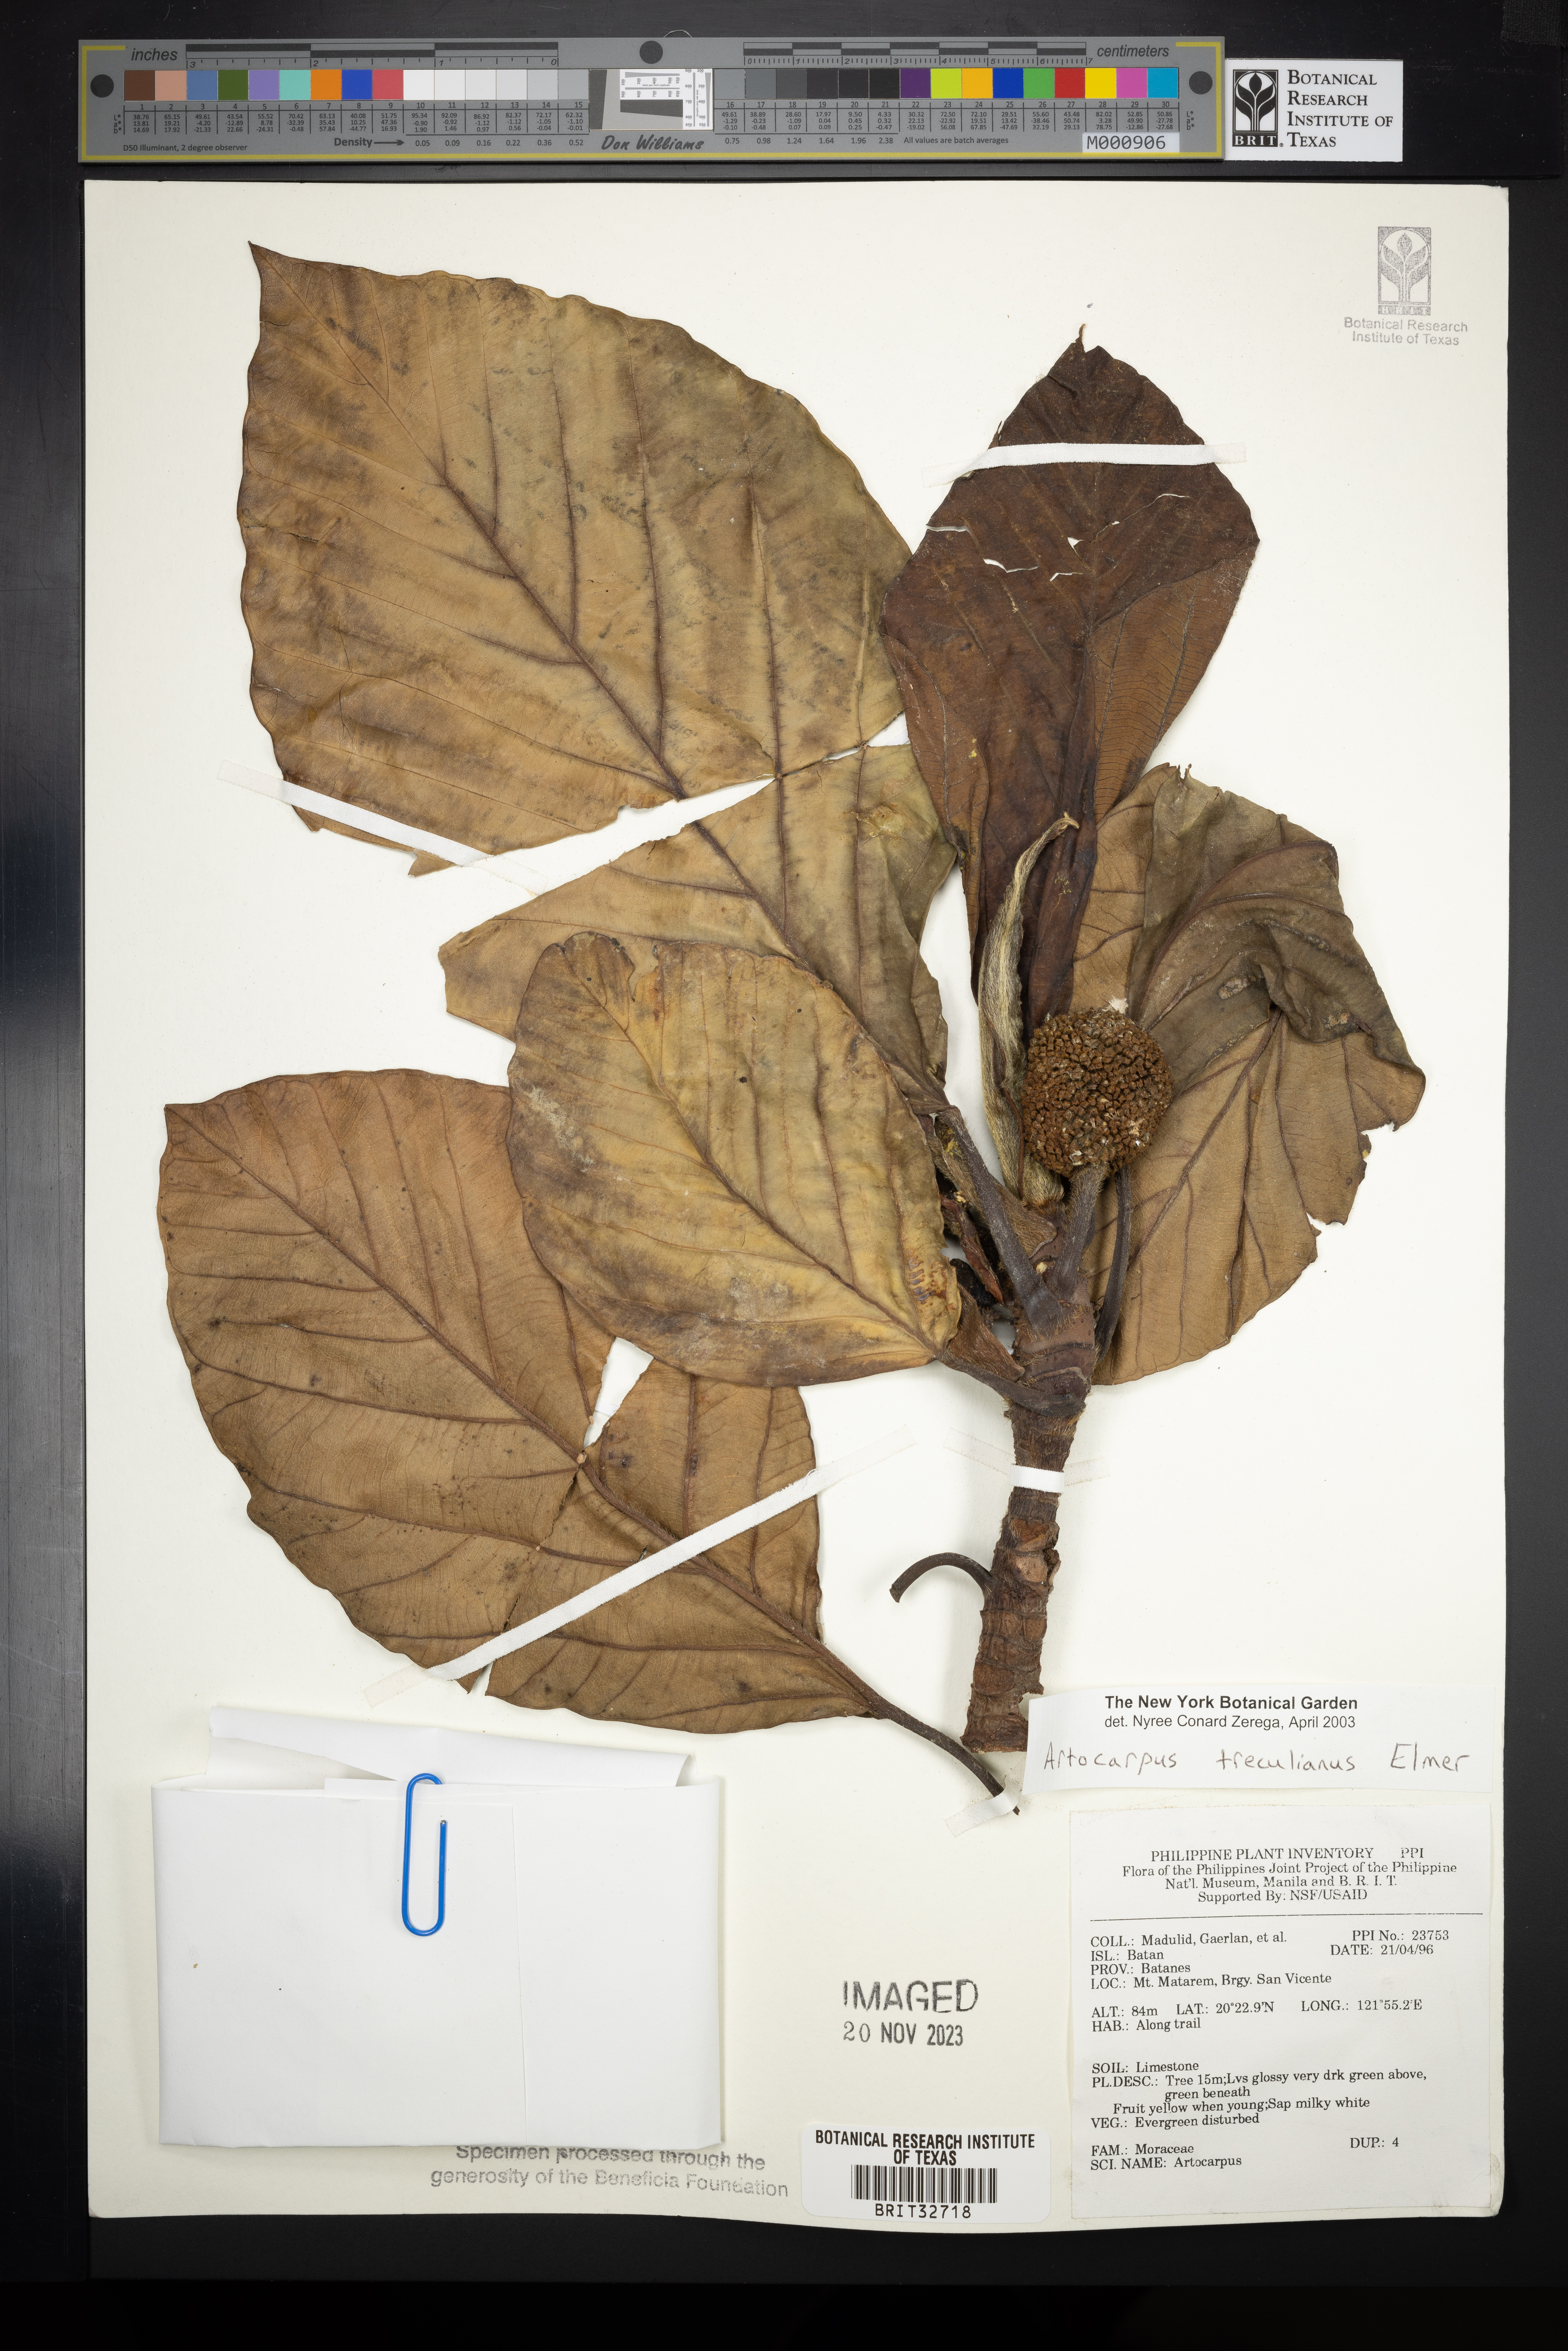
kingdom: Plantae
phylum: Tracheophyta
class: Magnoliopsida
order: Rosales
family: Moraceae
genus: Artocarpus
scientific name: Artocarpus treculianus
